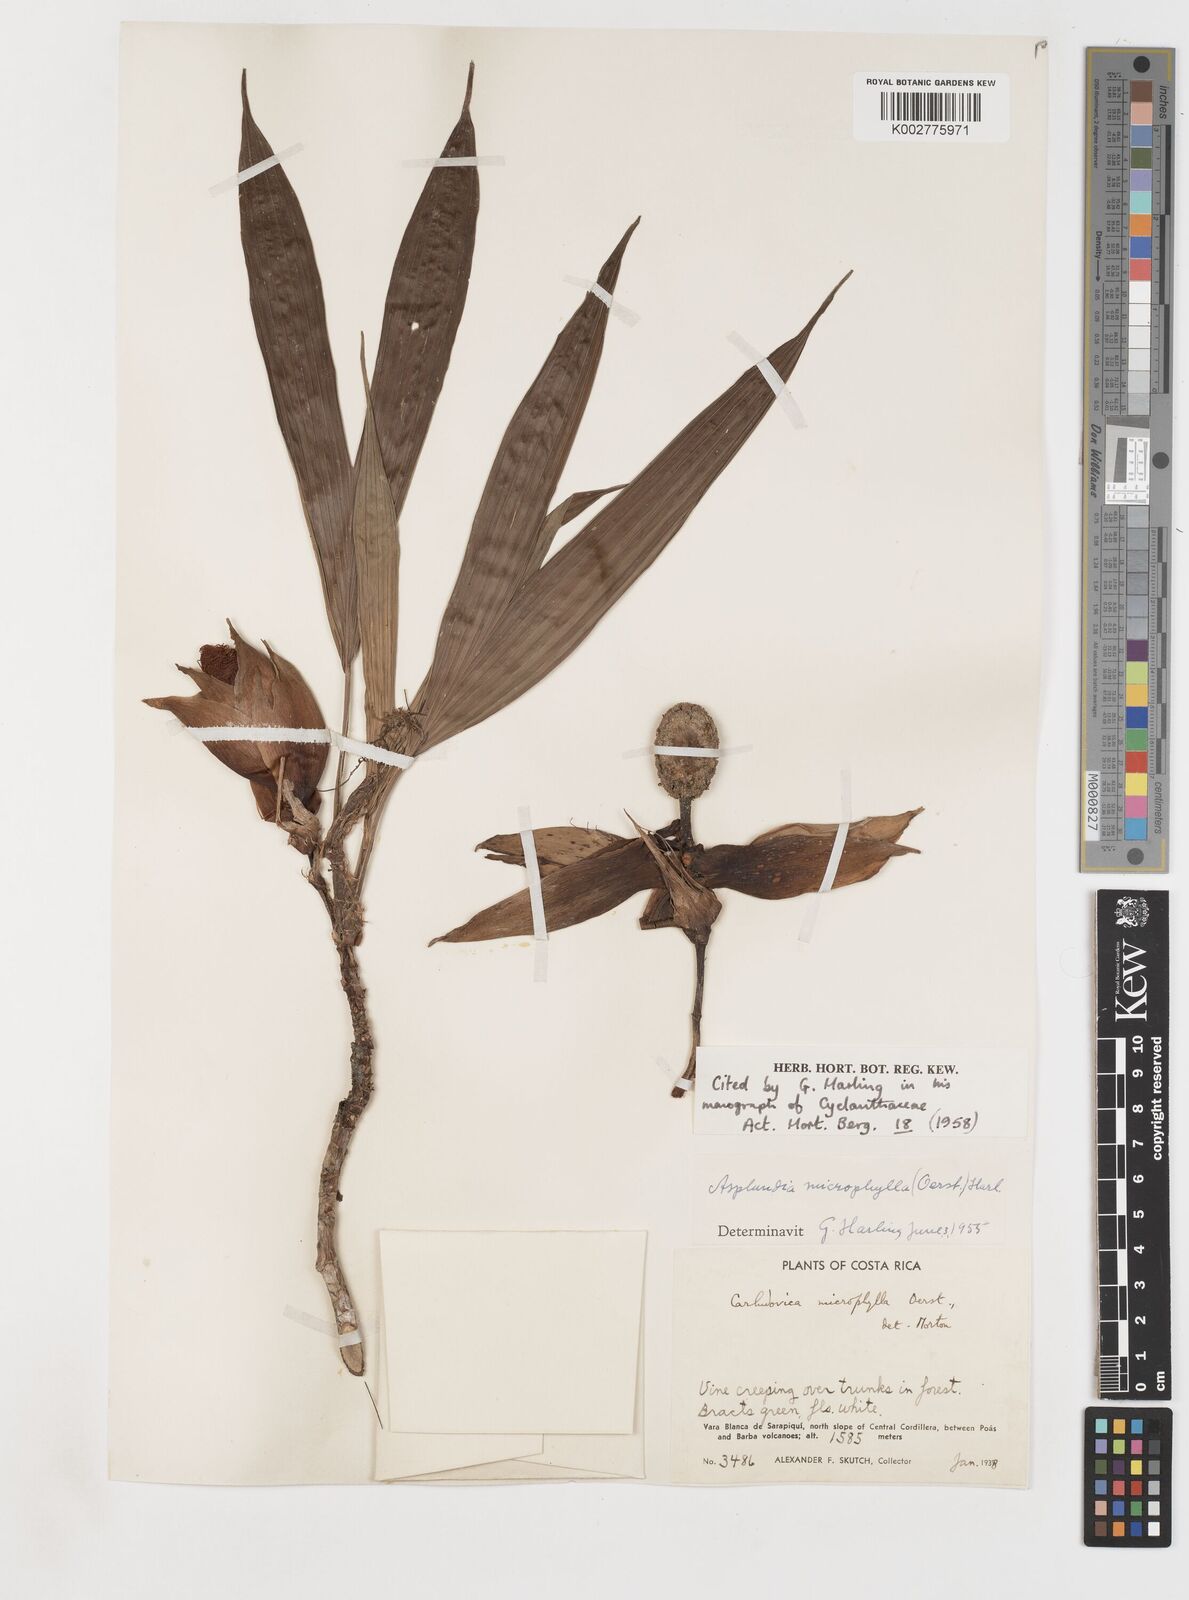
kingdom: Plantae
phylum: Tracheophyta
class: Liliopsida
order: Pandanales
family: Cyclanthaceae
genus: Asplundia
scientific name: Asplundia microphylla
